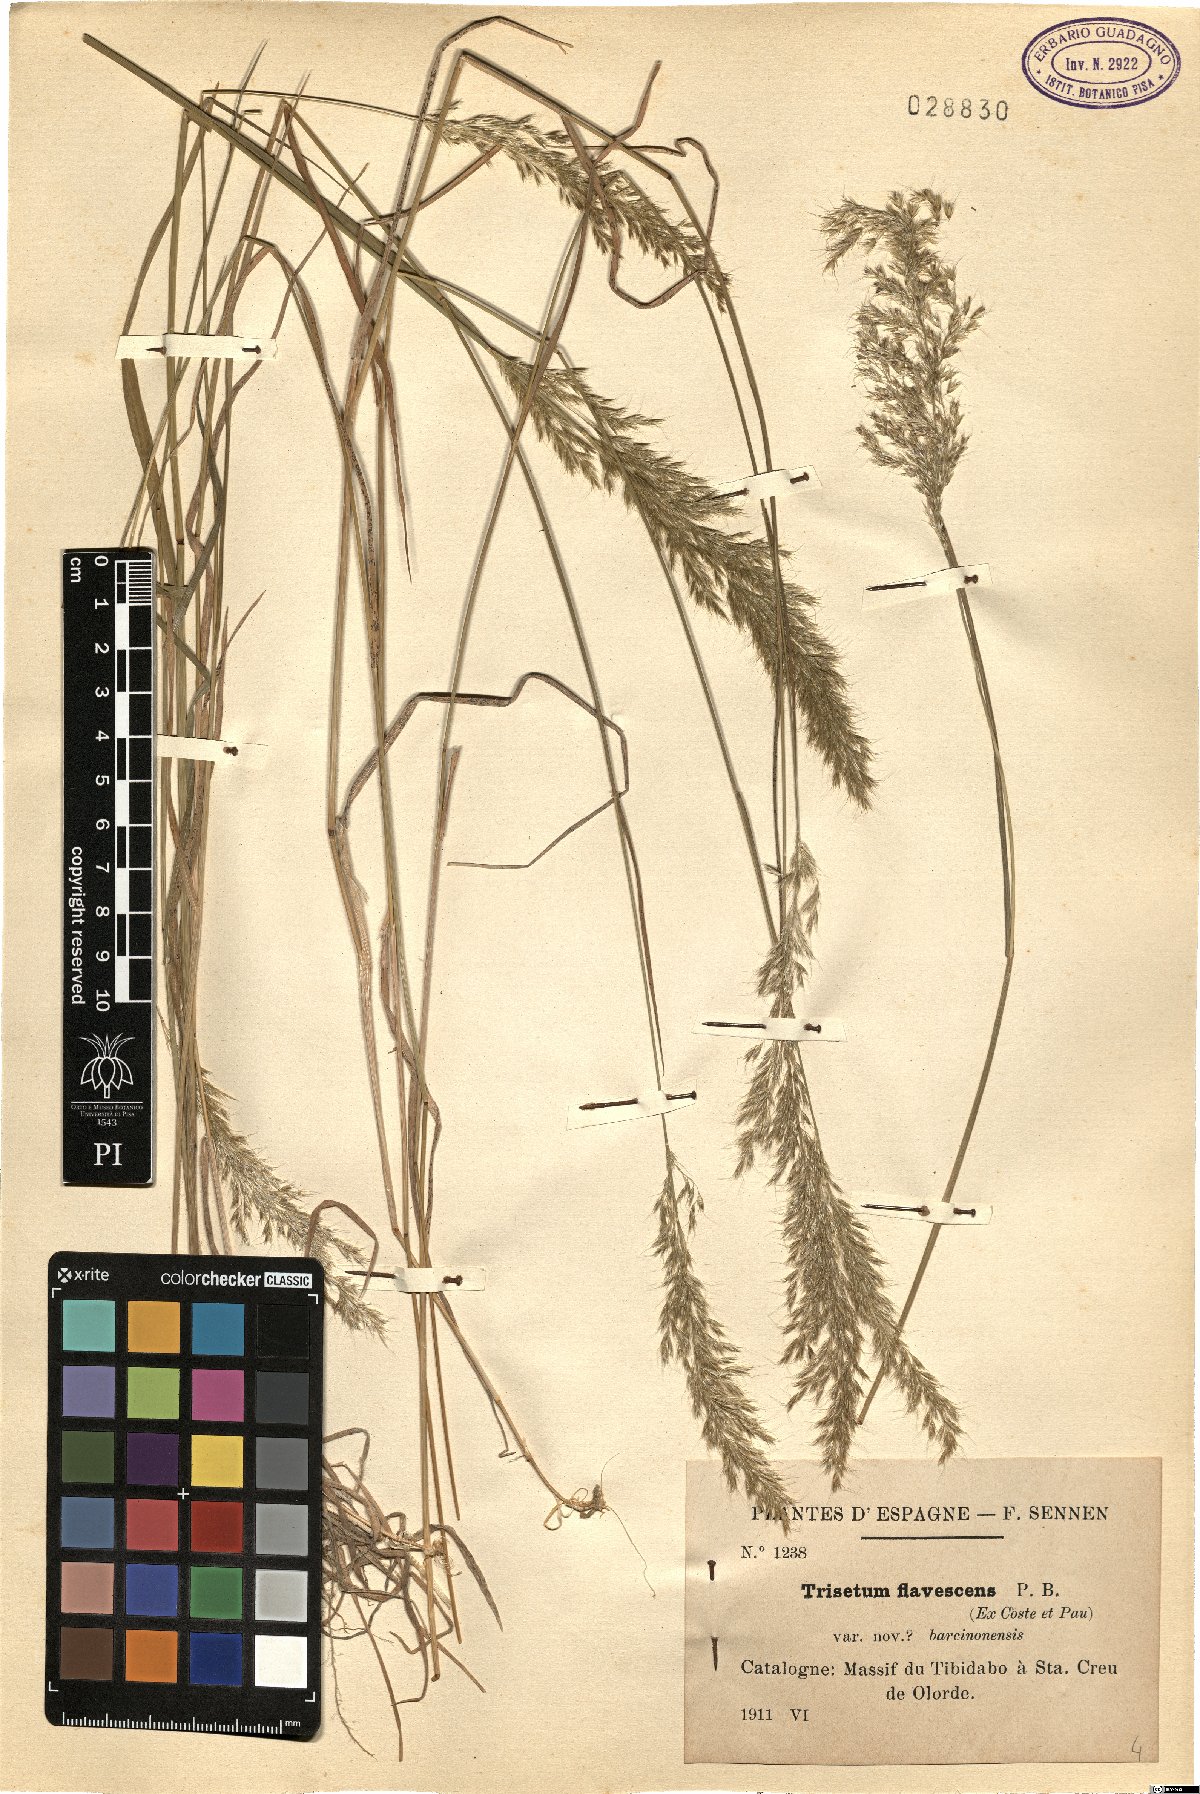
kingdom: Plantae
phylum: Tracheophyta
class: Liliopsida
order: Poales
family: Poaceae
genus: Trisetum
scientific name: Trisetum flavescens
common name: Yellow oat-grass
